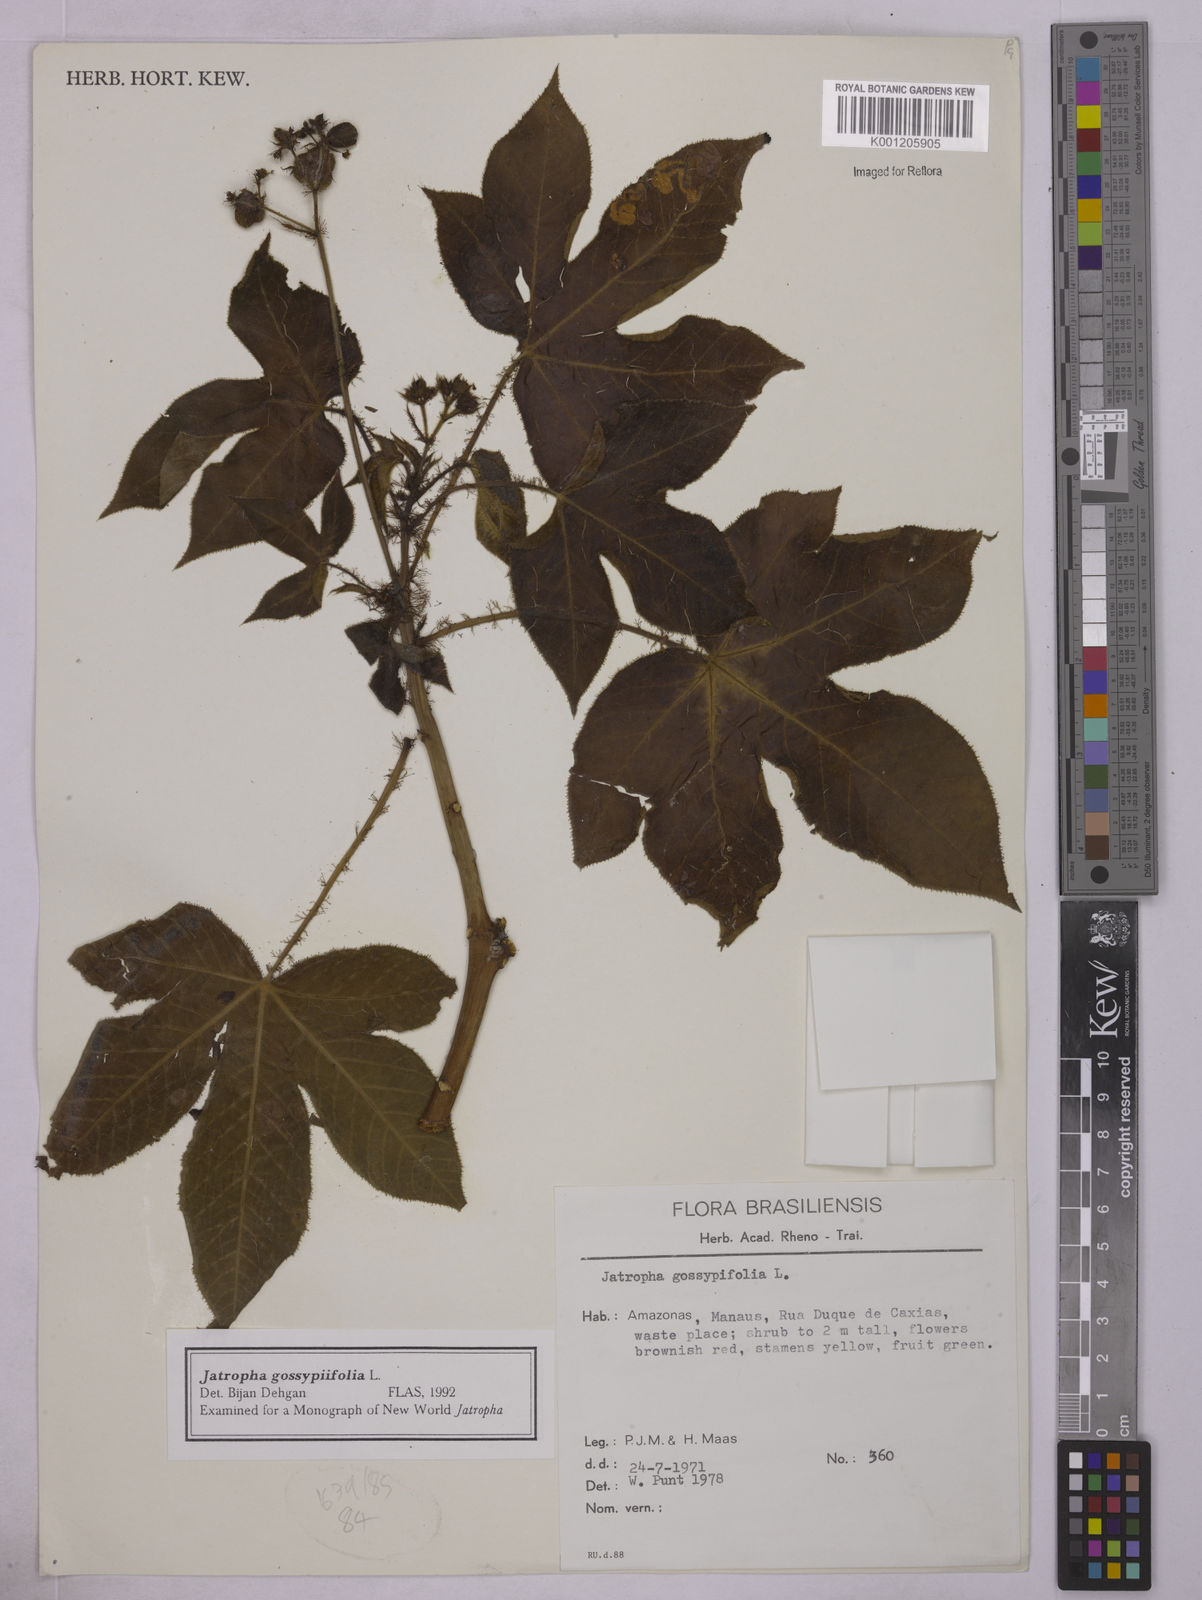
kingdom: Plantae
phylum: Tracheophyta
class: Magnoliopsida
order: Malpighiales
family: Euphorbiaceae
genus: Jatropha
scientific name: Jatropha gossypiifolia
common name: Bellyache bush
